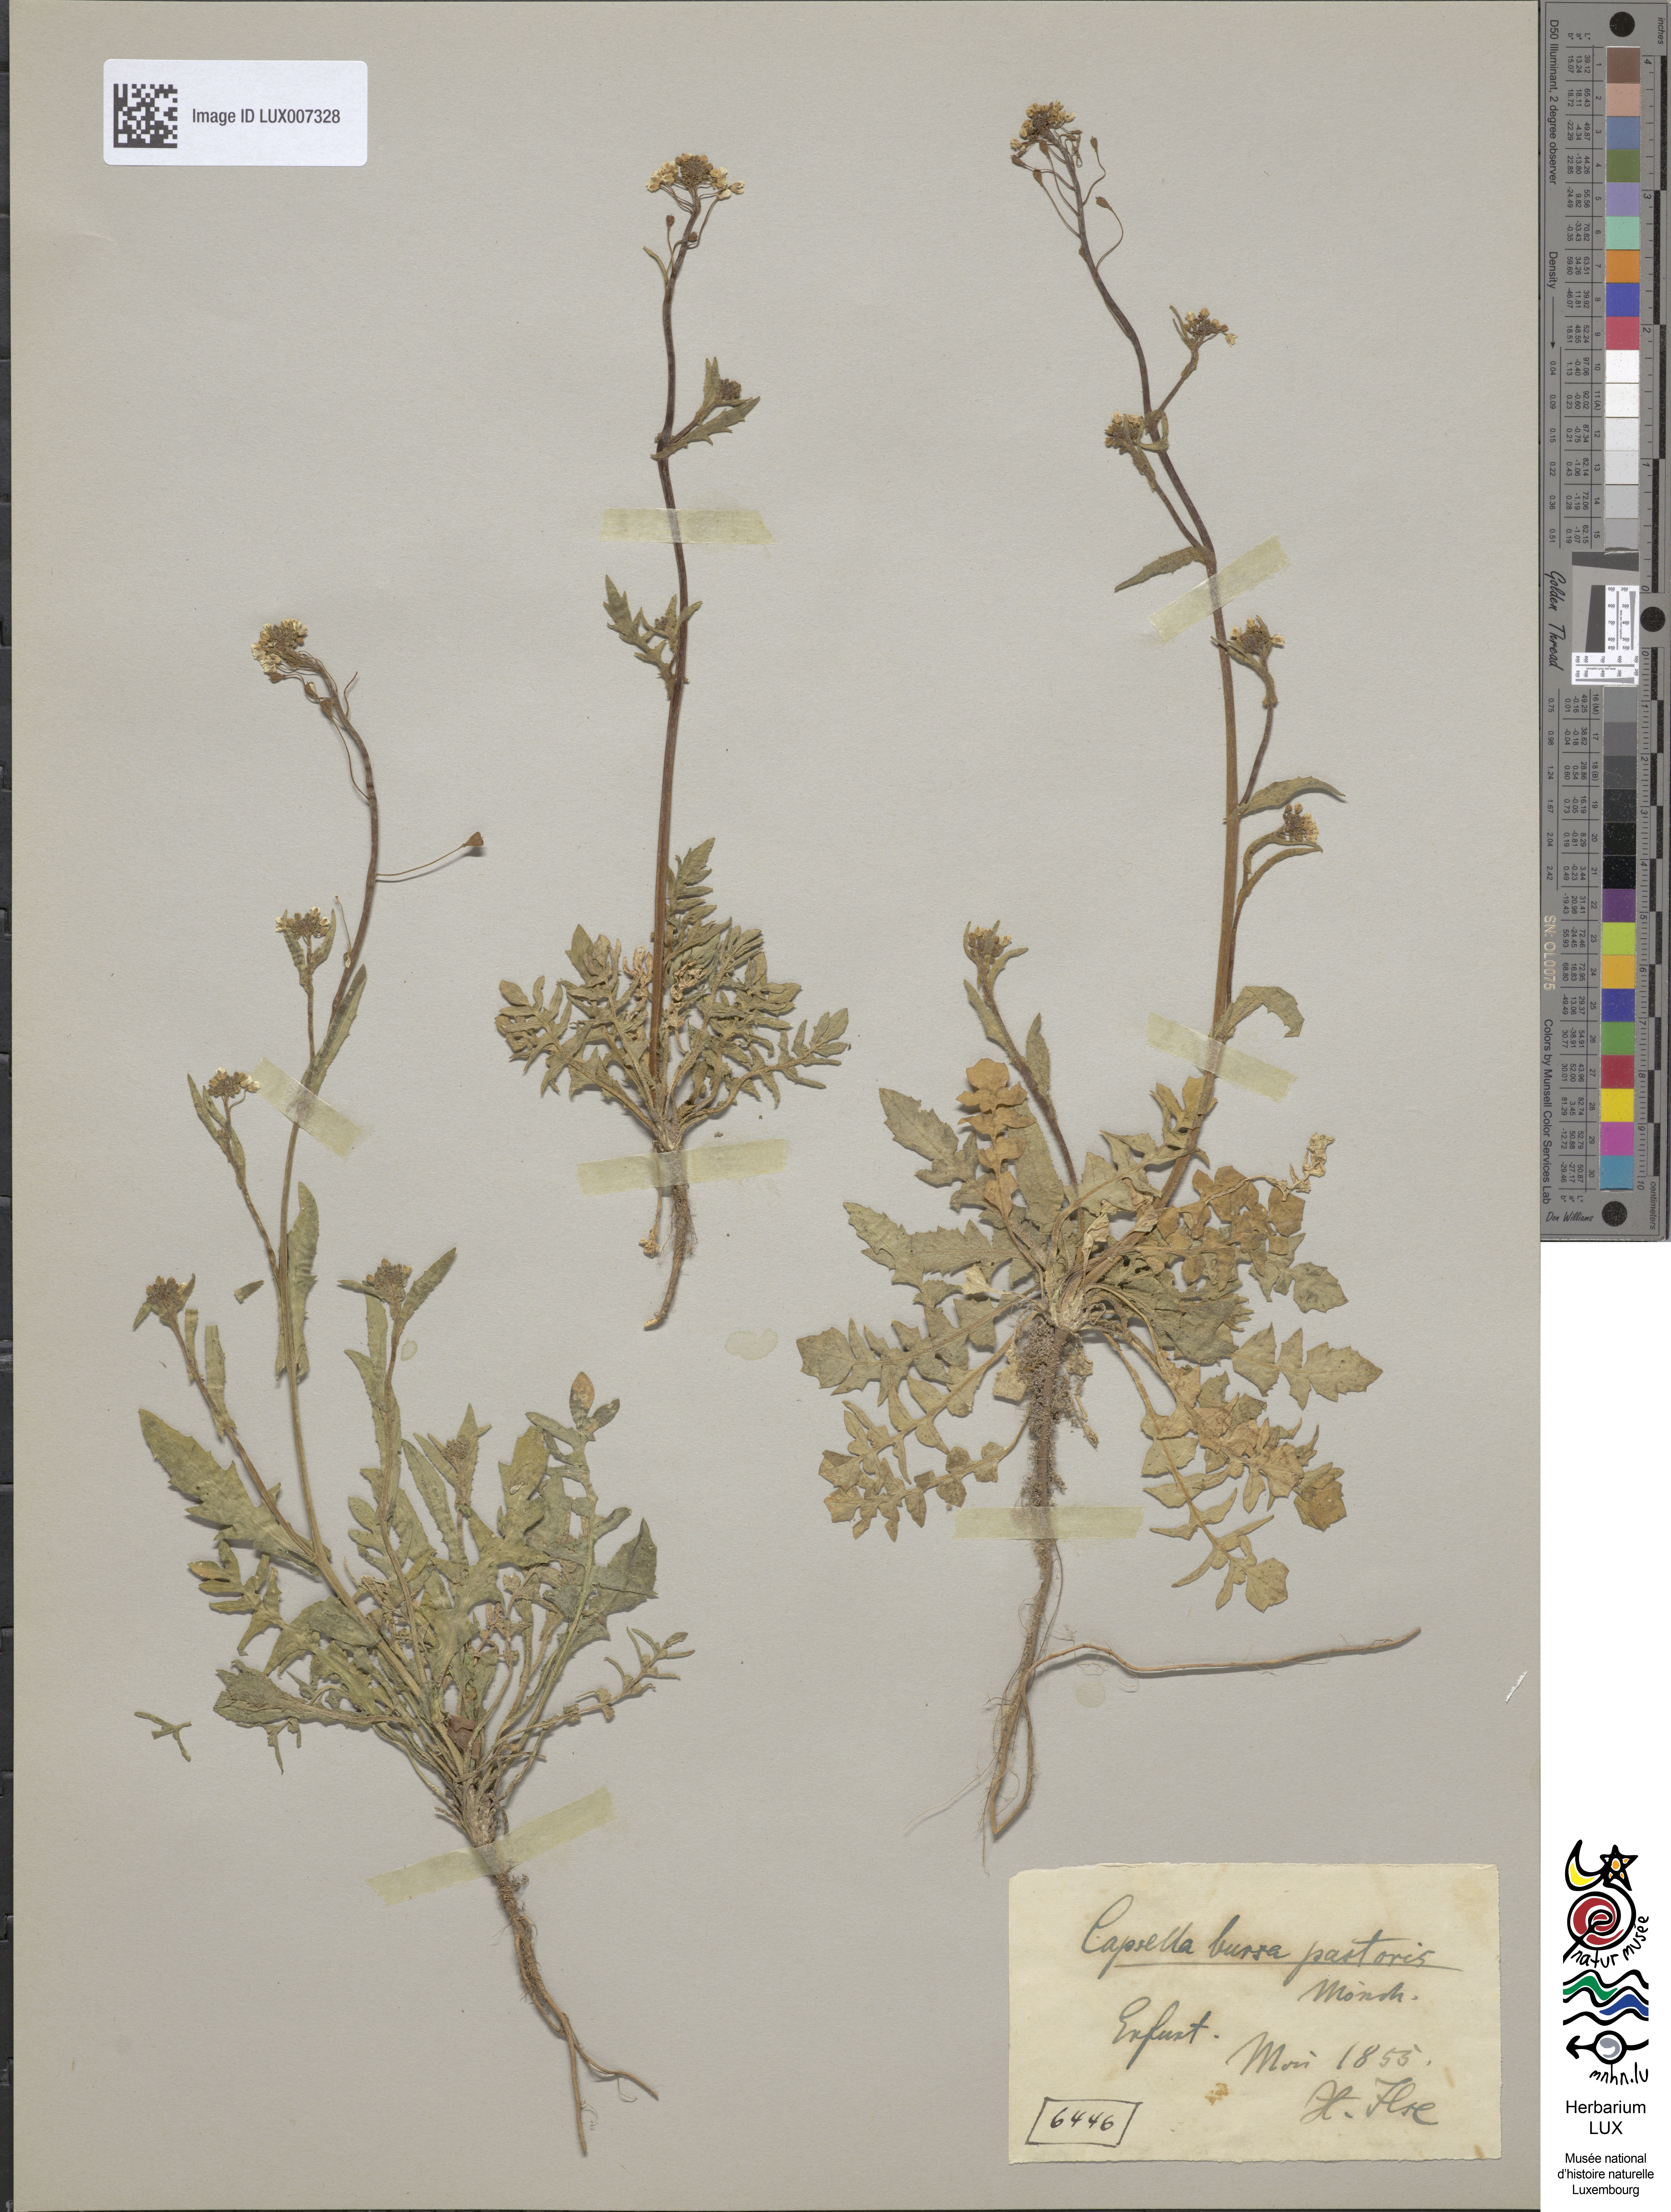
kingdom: Plantae
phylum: Tracheophyta
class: Magnoliopsida
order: Brassicales
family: Brassicaceae
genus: Capsella
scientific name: Capsella bursa-pastoris
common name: Shepherd's purse
